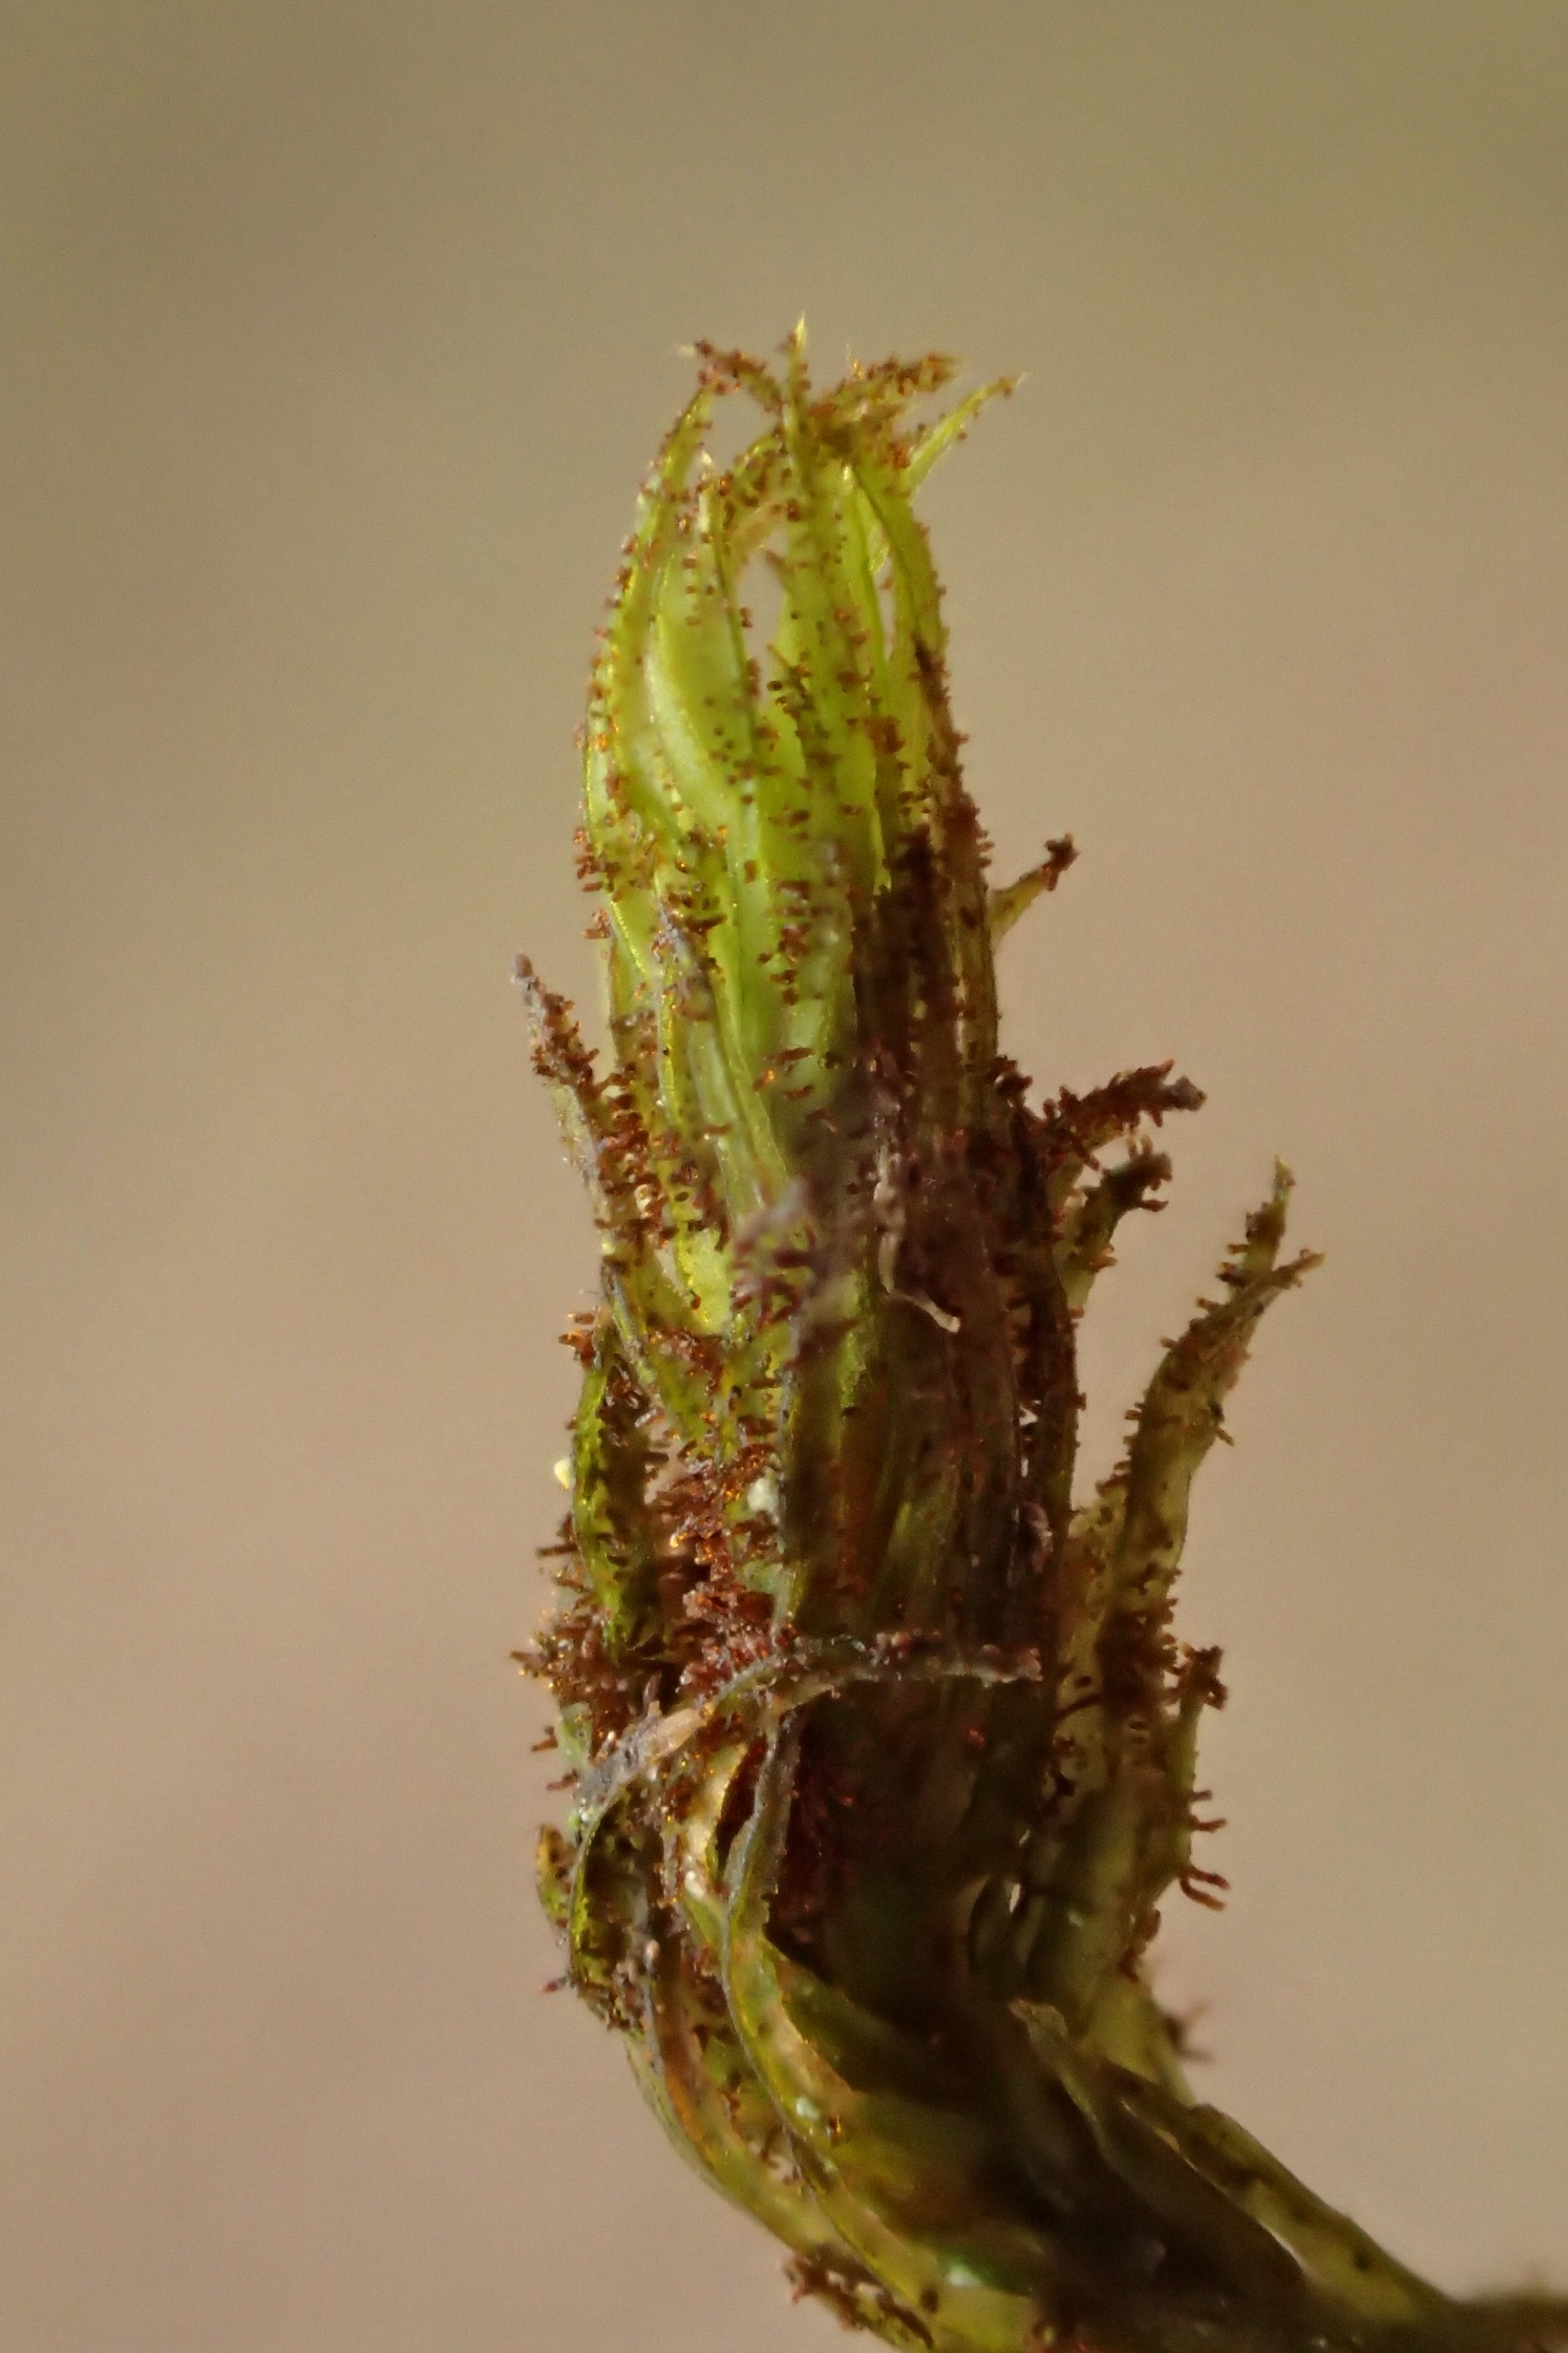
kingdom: Plantae
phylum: Bryophyta
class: Bryopsida
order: Orthotrichales
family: Orthotrichaceae
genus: Pulvigera
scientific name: Pulvigera lyellii
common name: Stor furehætte
